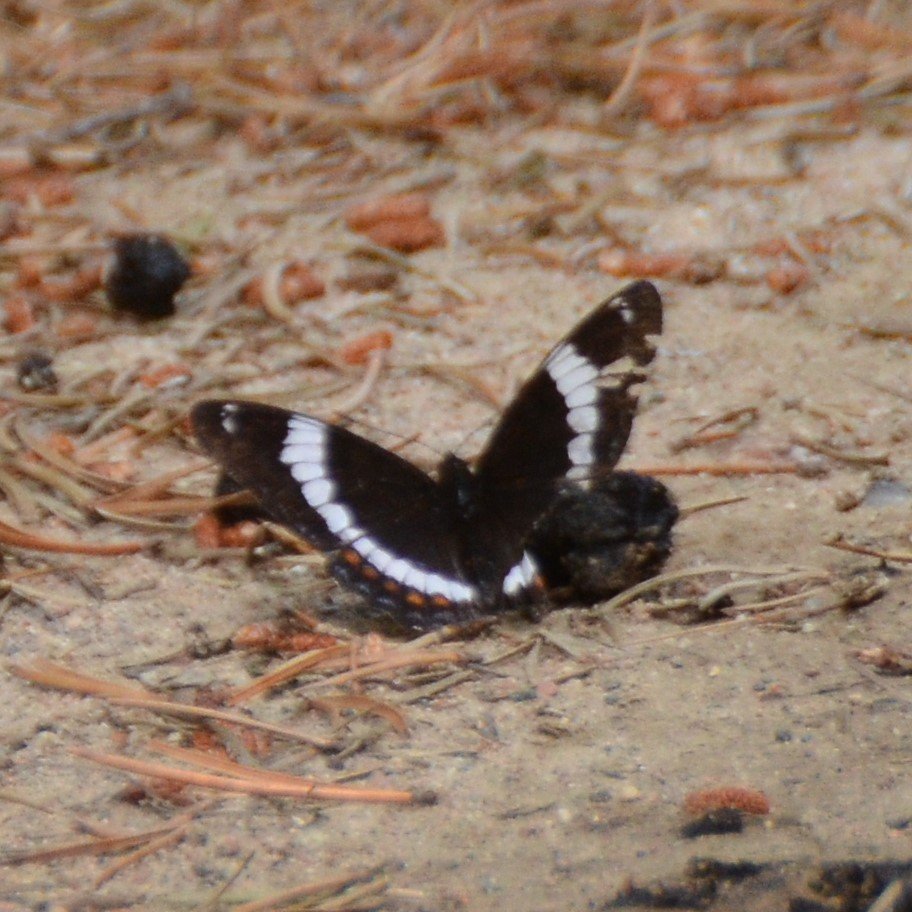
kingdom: Animalia
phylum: Arthropoda
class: Insecta
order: Lepidoptera
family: Nymphalidae
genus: Limenitis
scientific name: Limenitis arthemis
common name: Red-spotted Admiral
